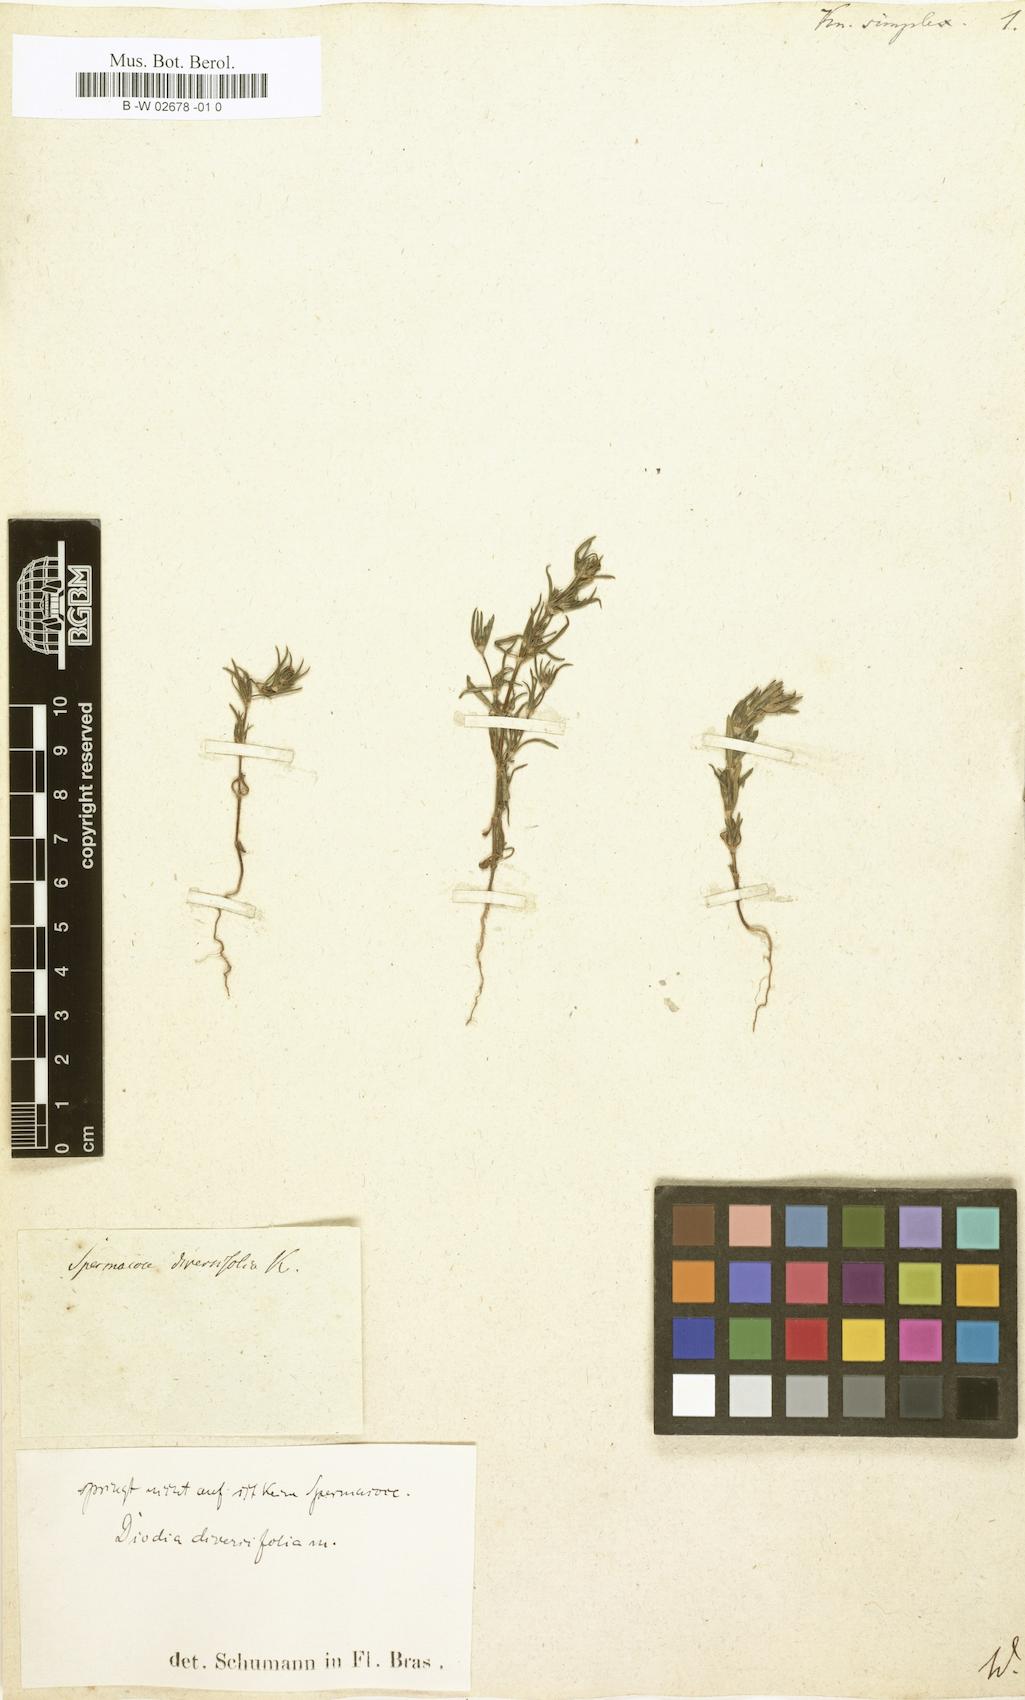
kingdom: Plantae
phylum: Tracheophyta
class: Magnoliopsida
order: Gentianales
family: Rubiaceae
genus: Crusea
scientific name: Crusea simplex
